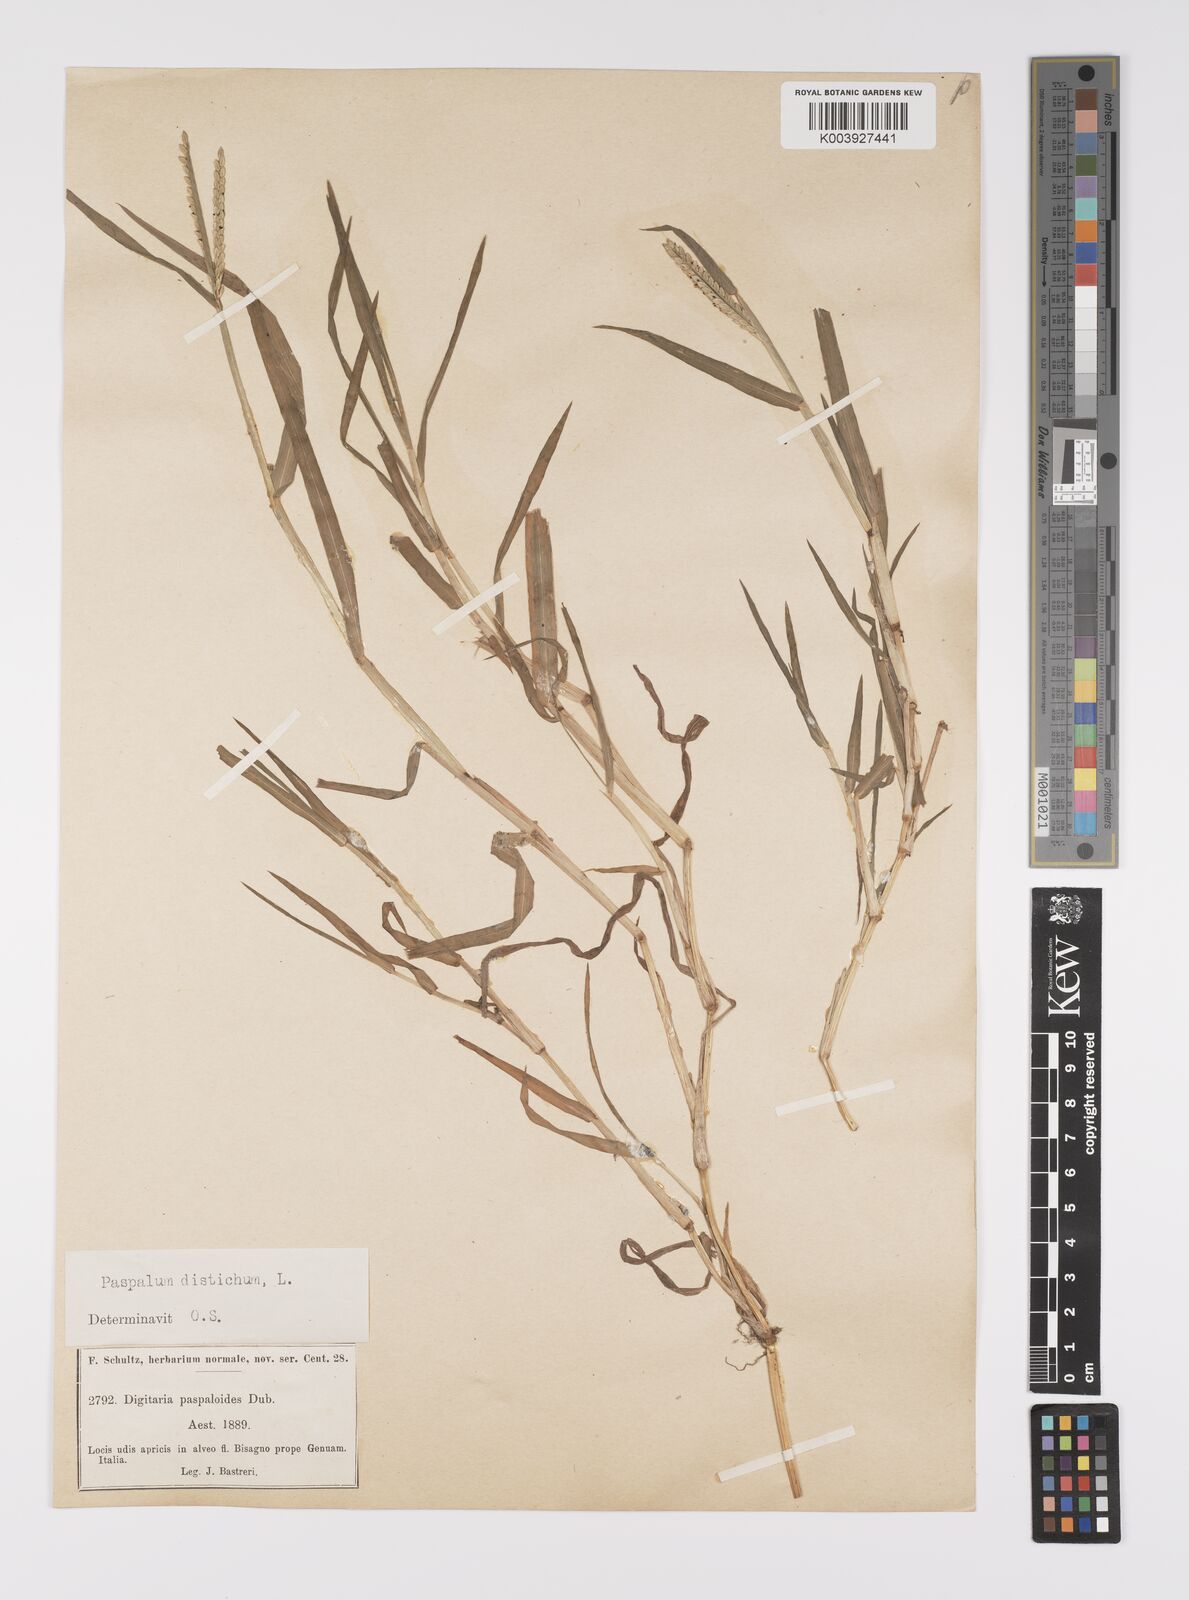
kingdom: Plantae
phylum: Tracheophyta
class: Liliopsida
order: Poales
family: Poaceae
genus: Paspalum
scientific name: Paspalum distichum
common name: Knotgrass
